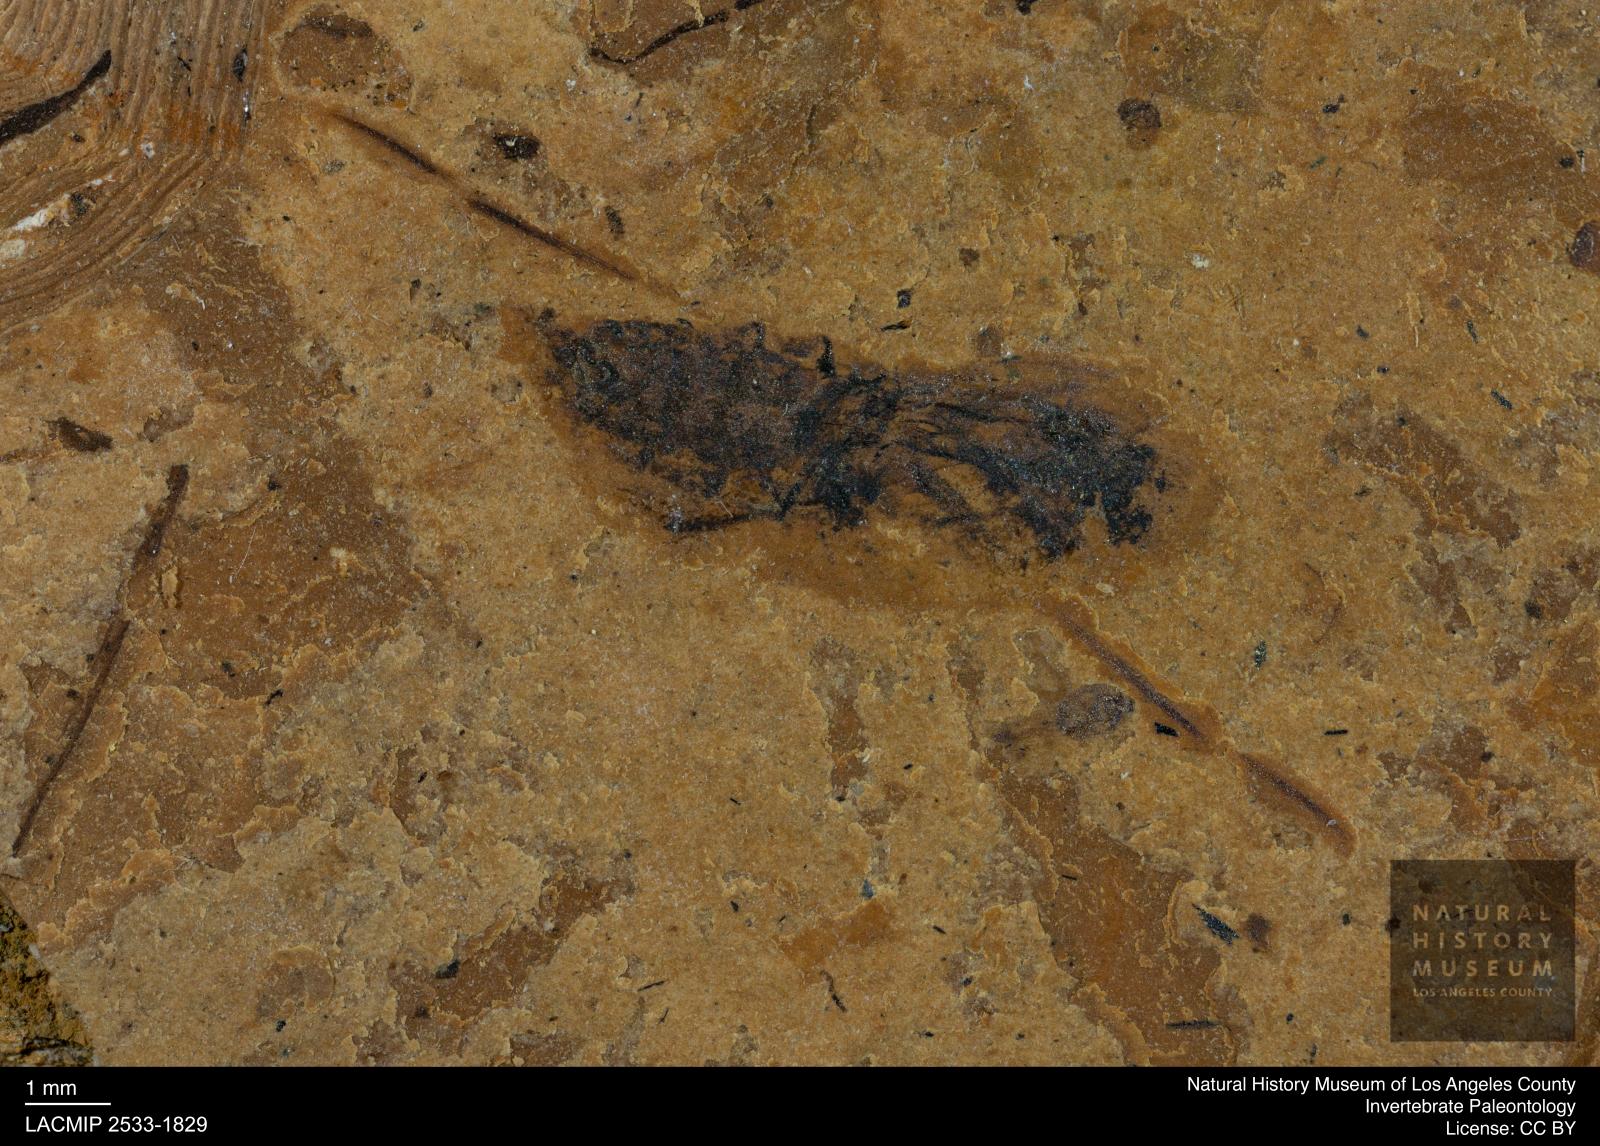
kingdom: Animalia
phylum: Arthropoda
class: Insecta
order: Hemiptera
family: Notonectidae
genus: Notonecta
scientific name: Notonecta
